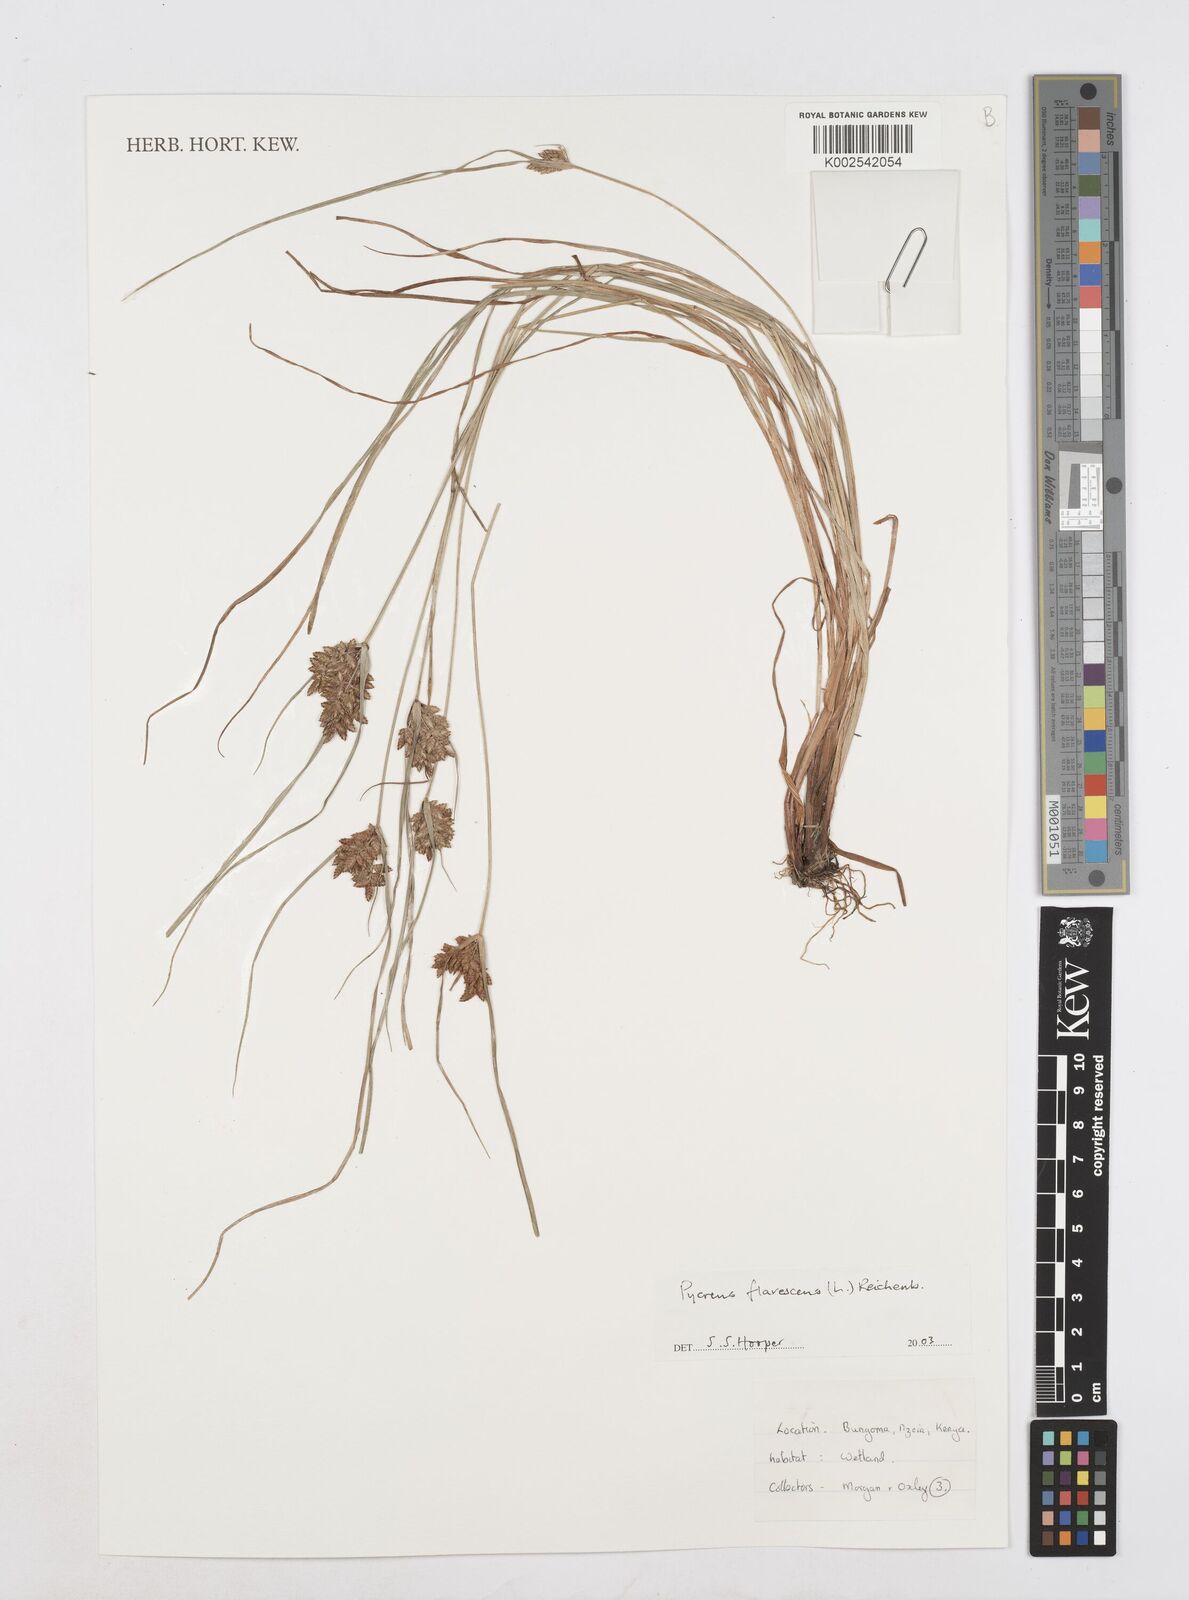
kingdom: Plantae
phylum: Tracheophyta
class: Liliopsida
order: Poales
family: Cyperaceae
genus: Cyperus
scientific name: Cyperus flavescens
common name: Yellow galingale
